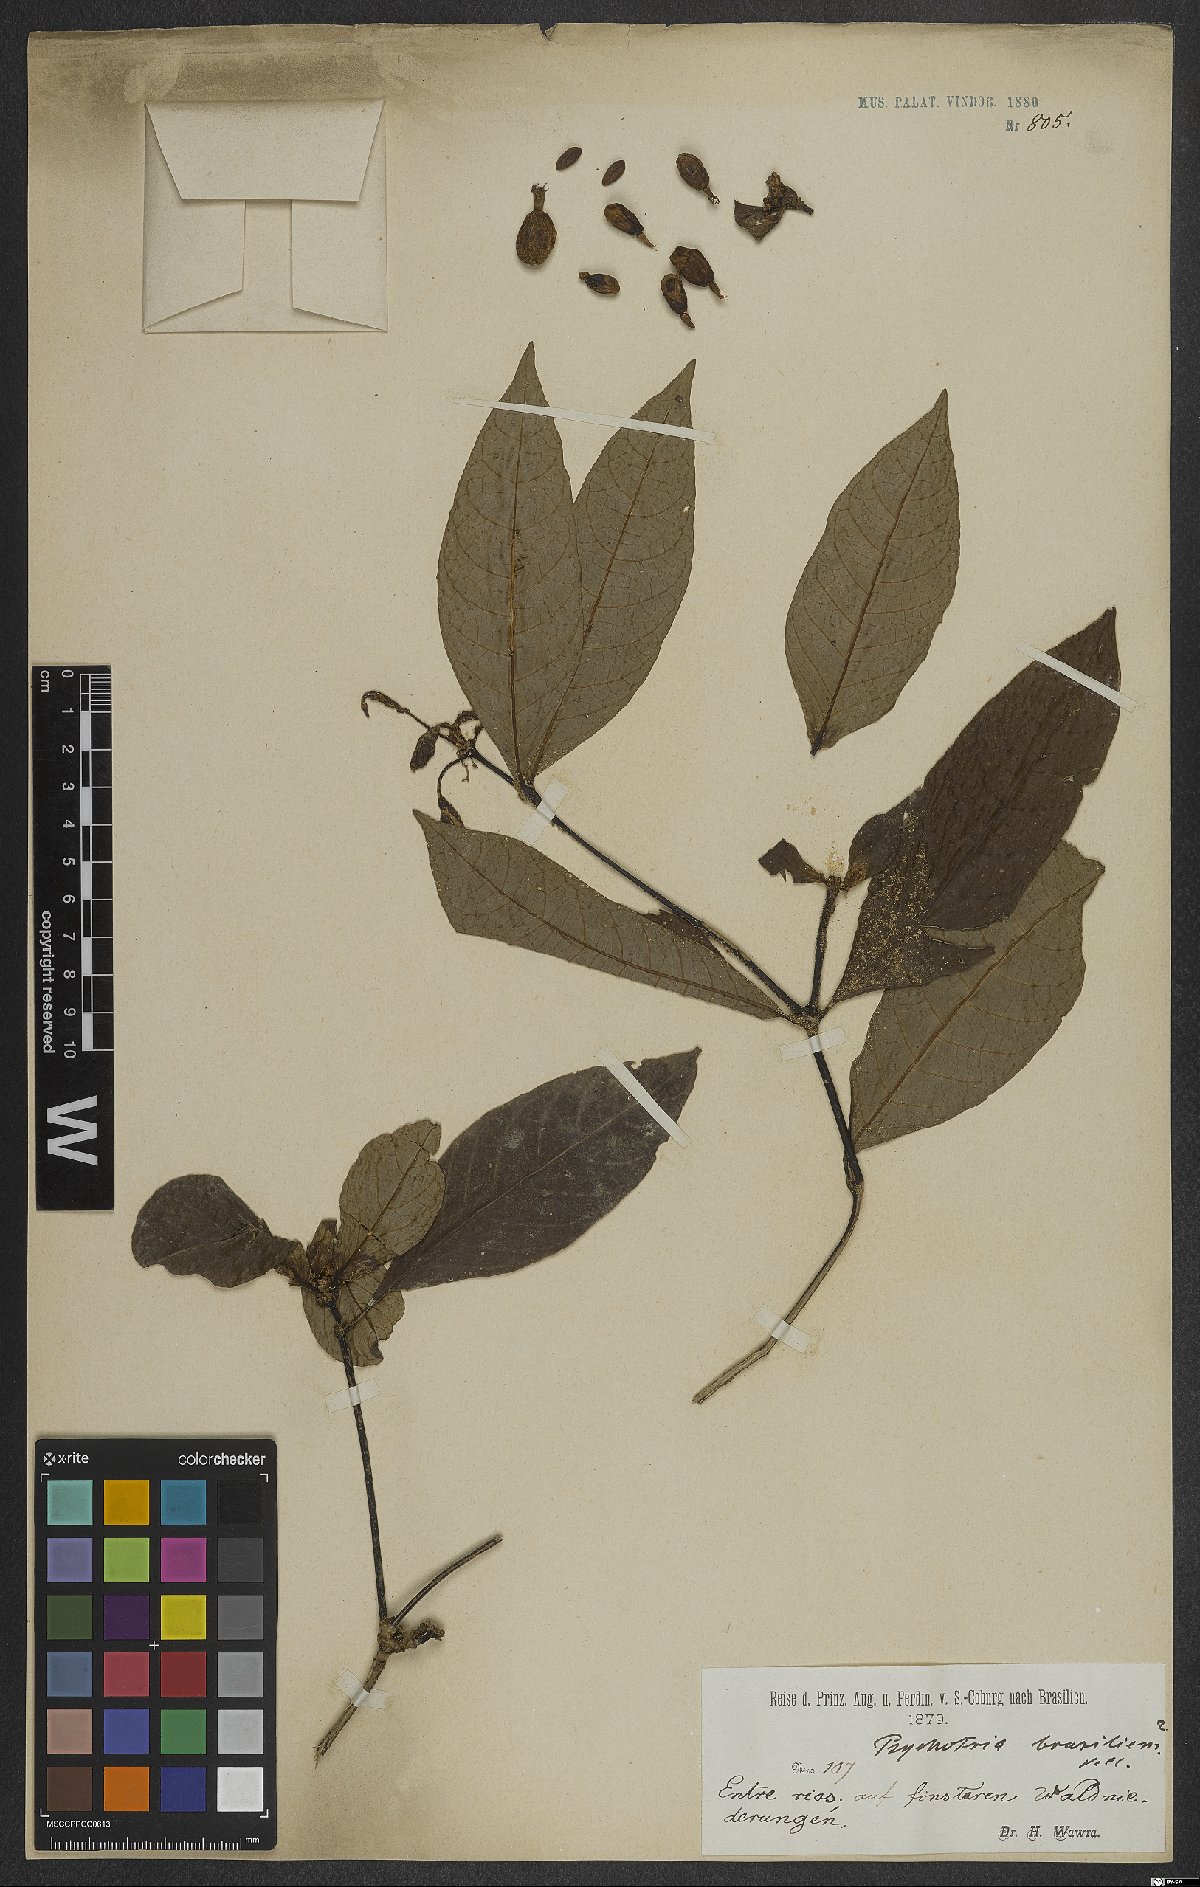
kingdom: Plantae
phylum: Tracheophyta
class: Magnoliopsida
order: Gentianales
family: Rubiaceae
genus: Psychotria
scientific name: Psychotria nuda
